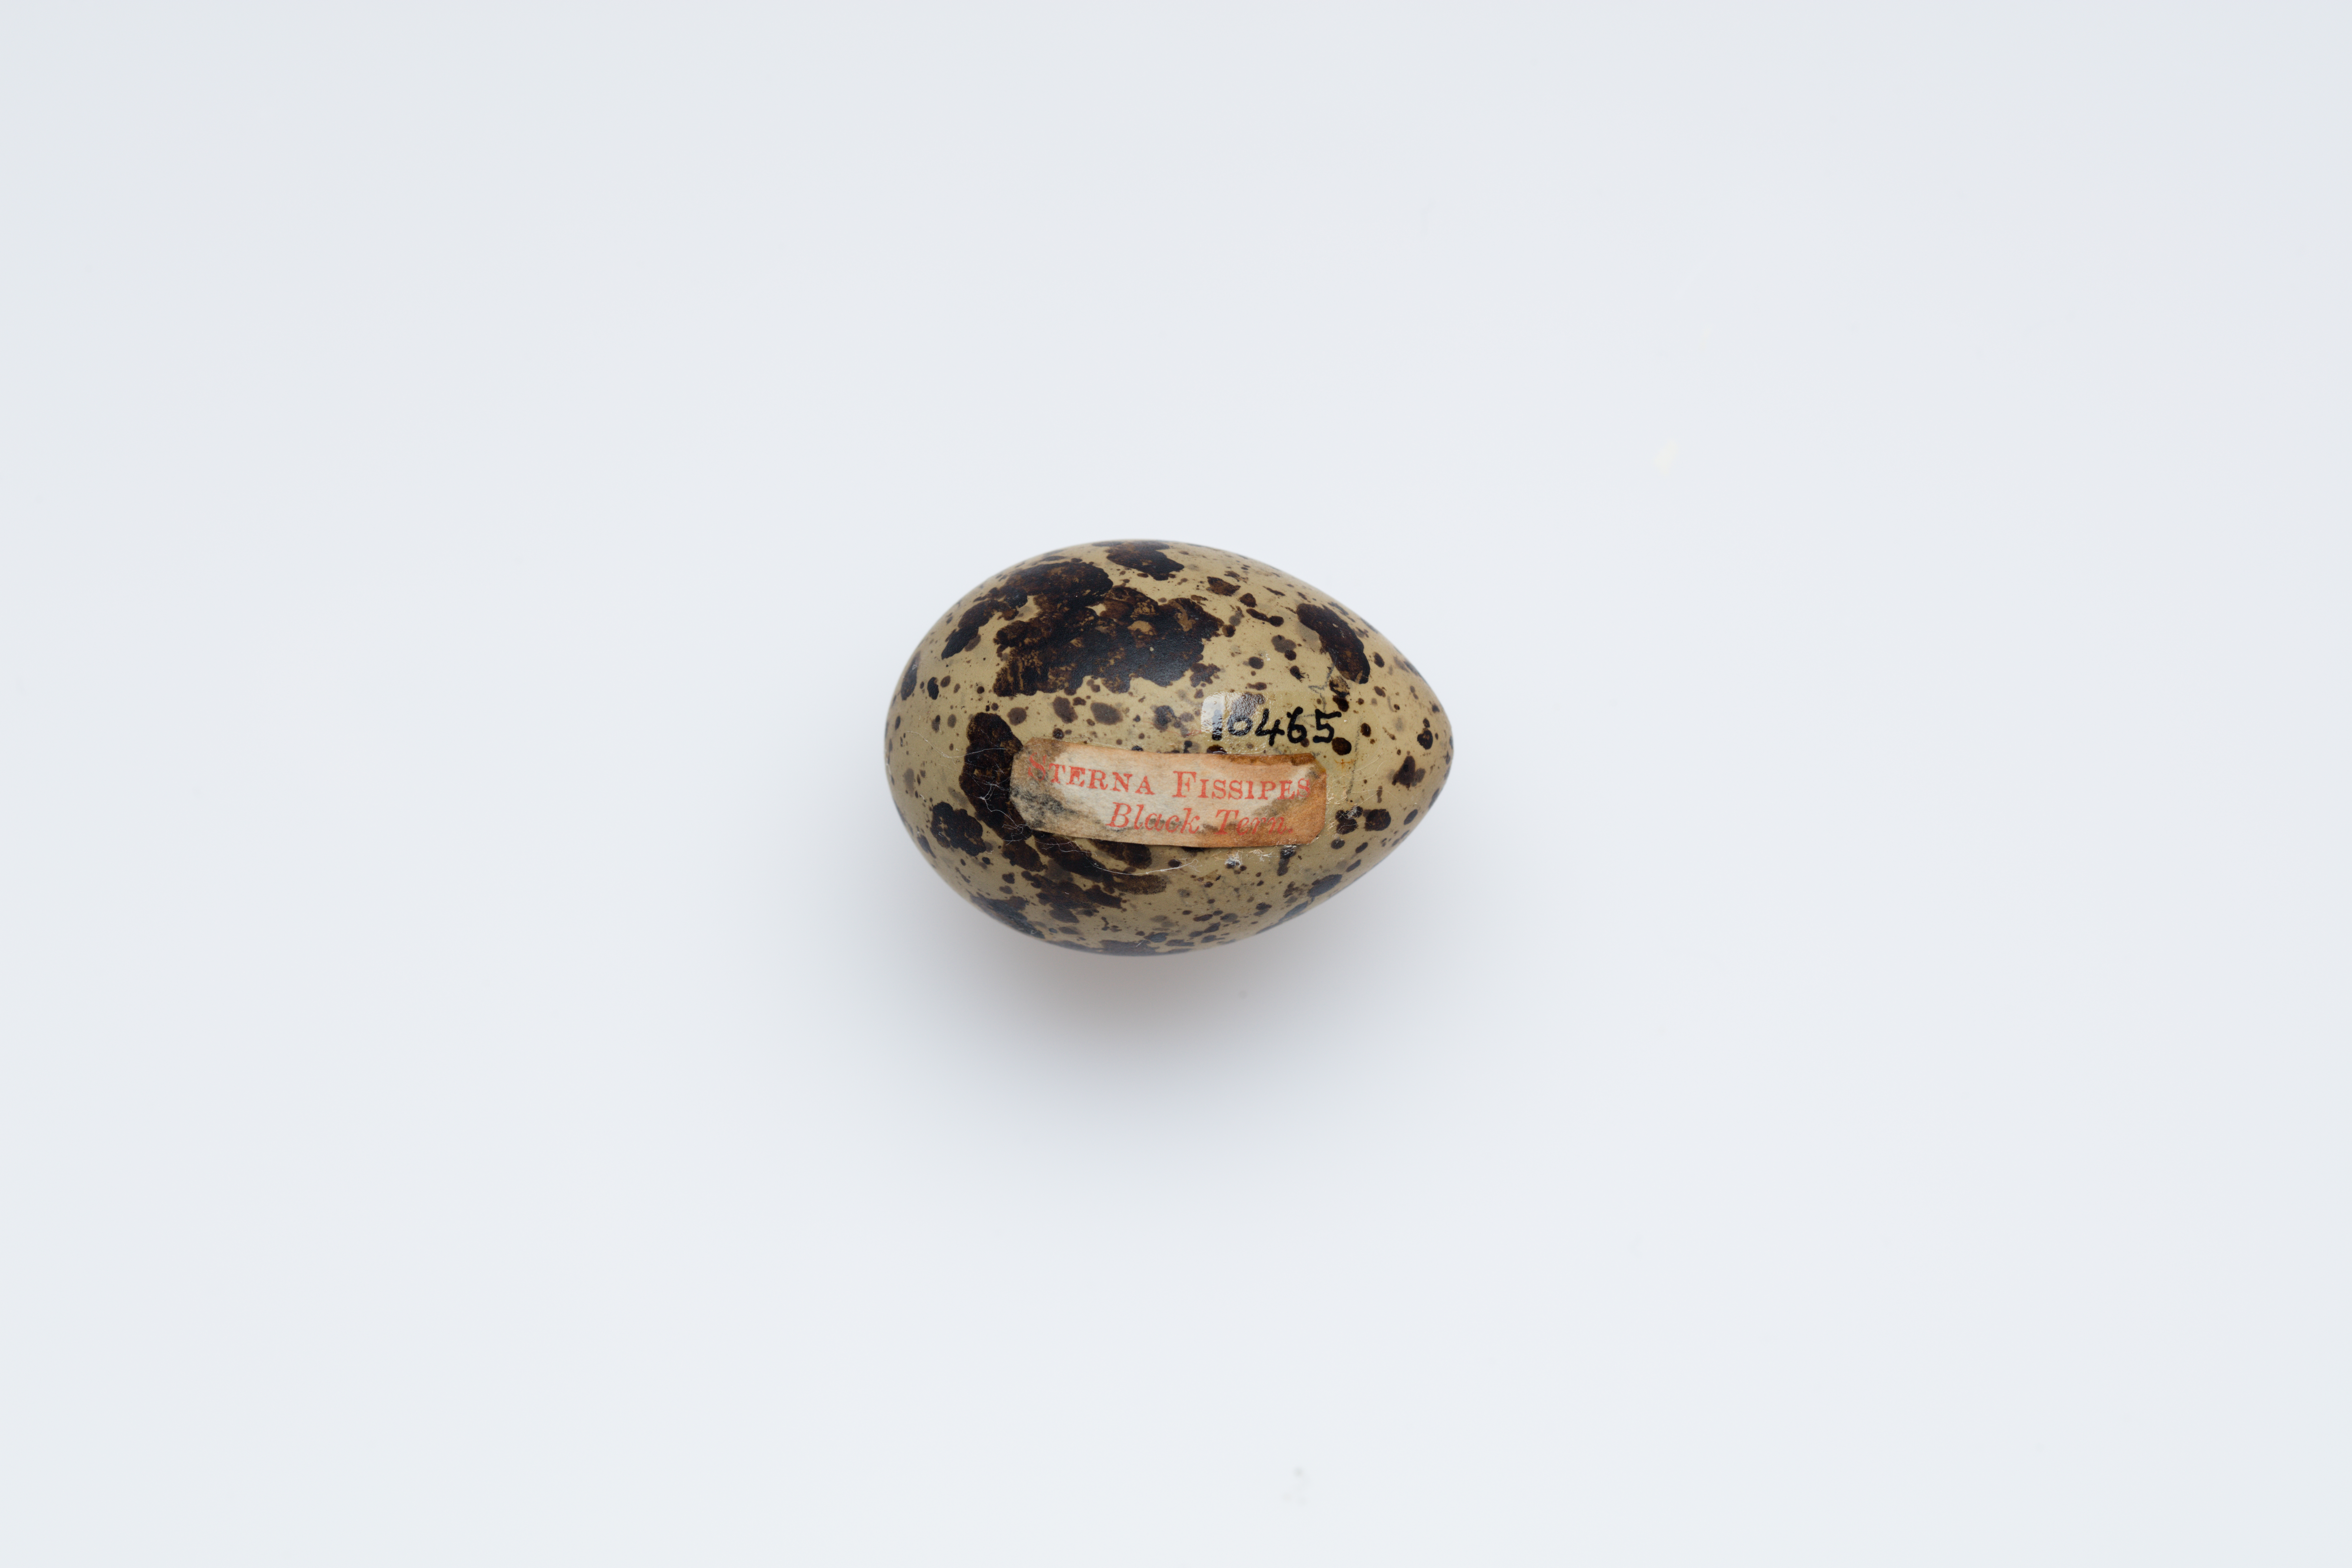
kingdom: Animalia
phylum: Chordata
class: Aves
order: Charadriiformes
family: Laridae
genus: Chlidonias
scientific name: Chlidonias niger
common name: Black tern
